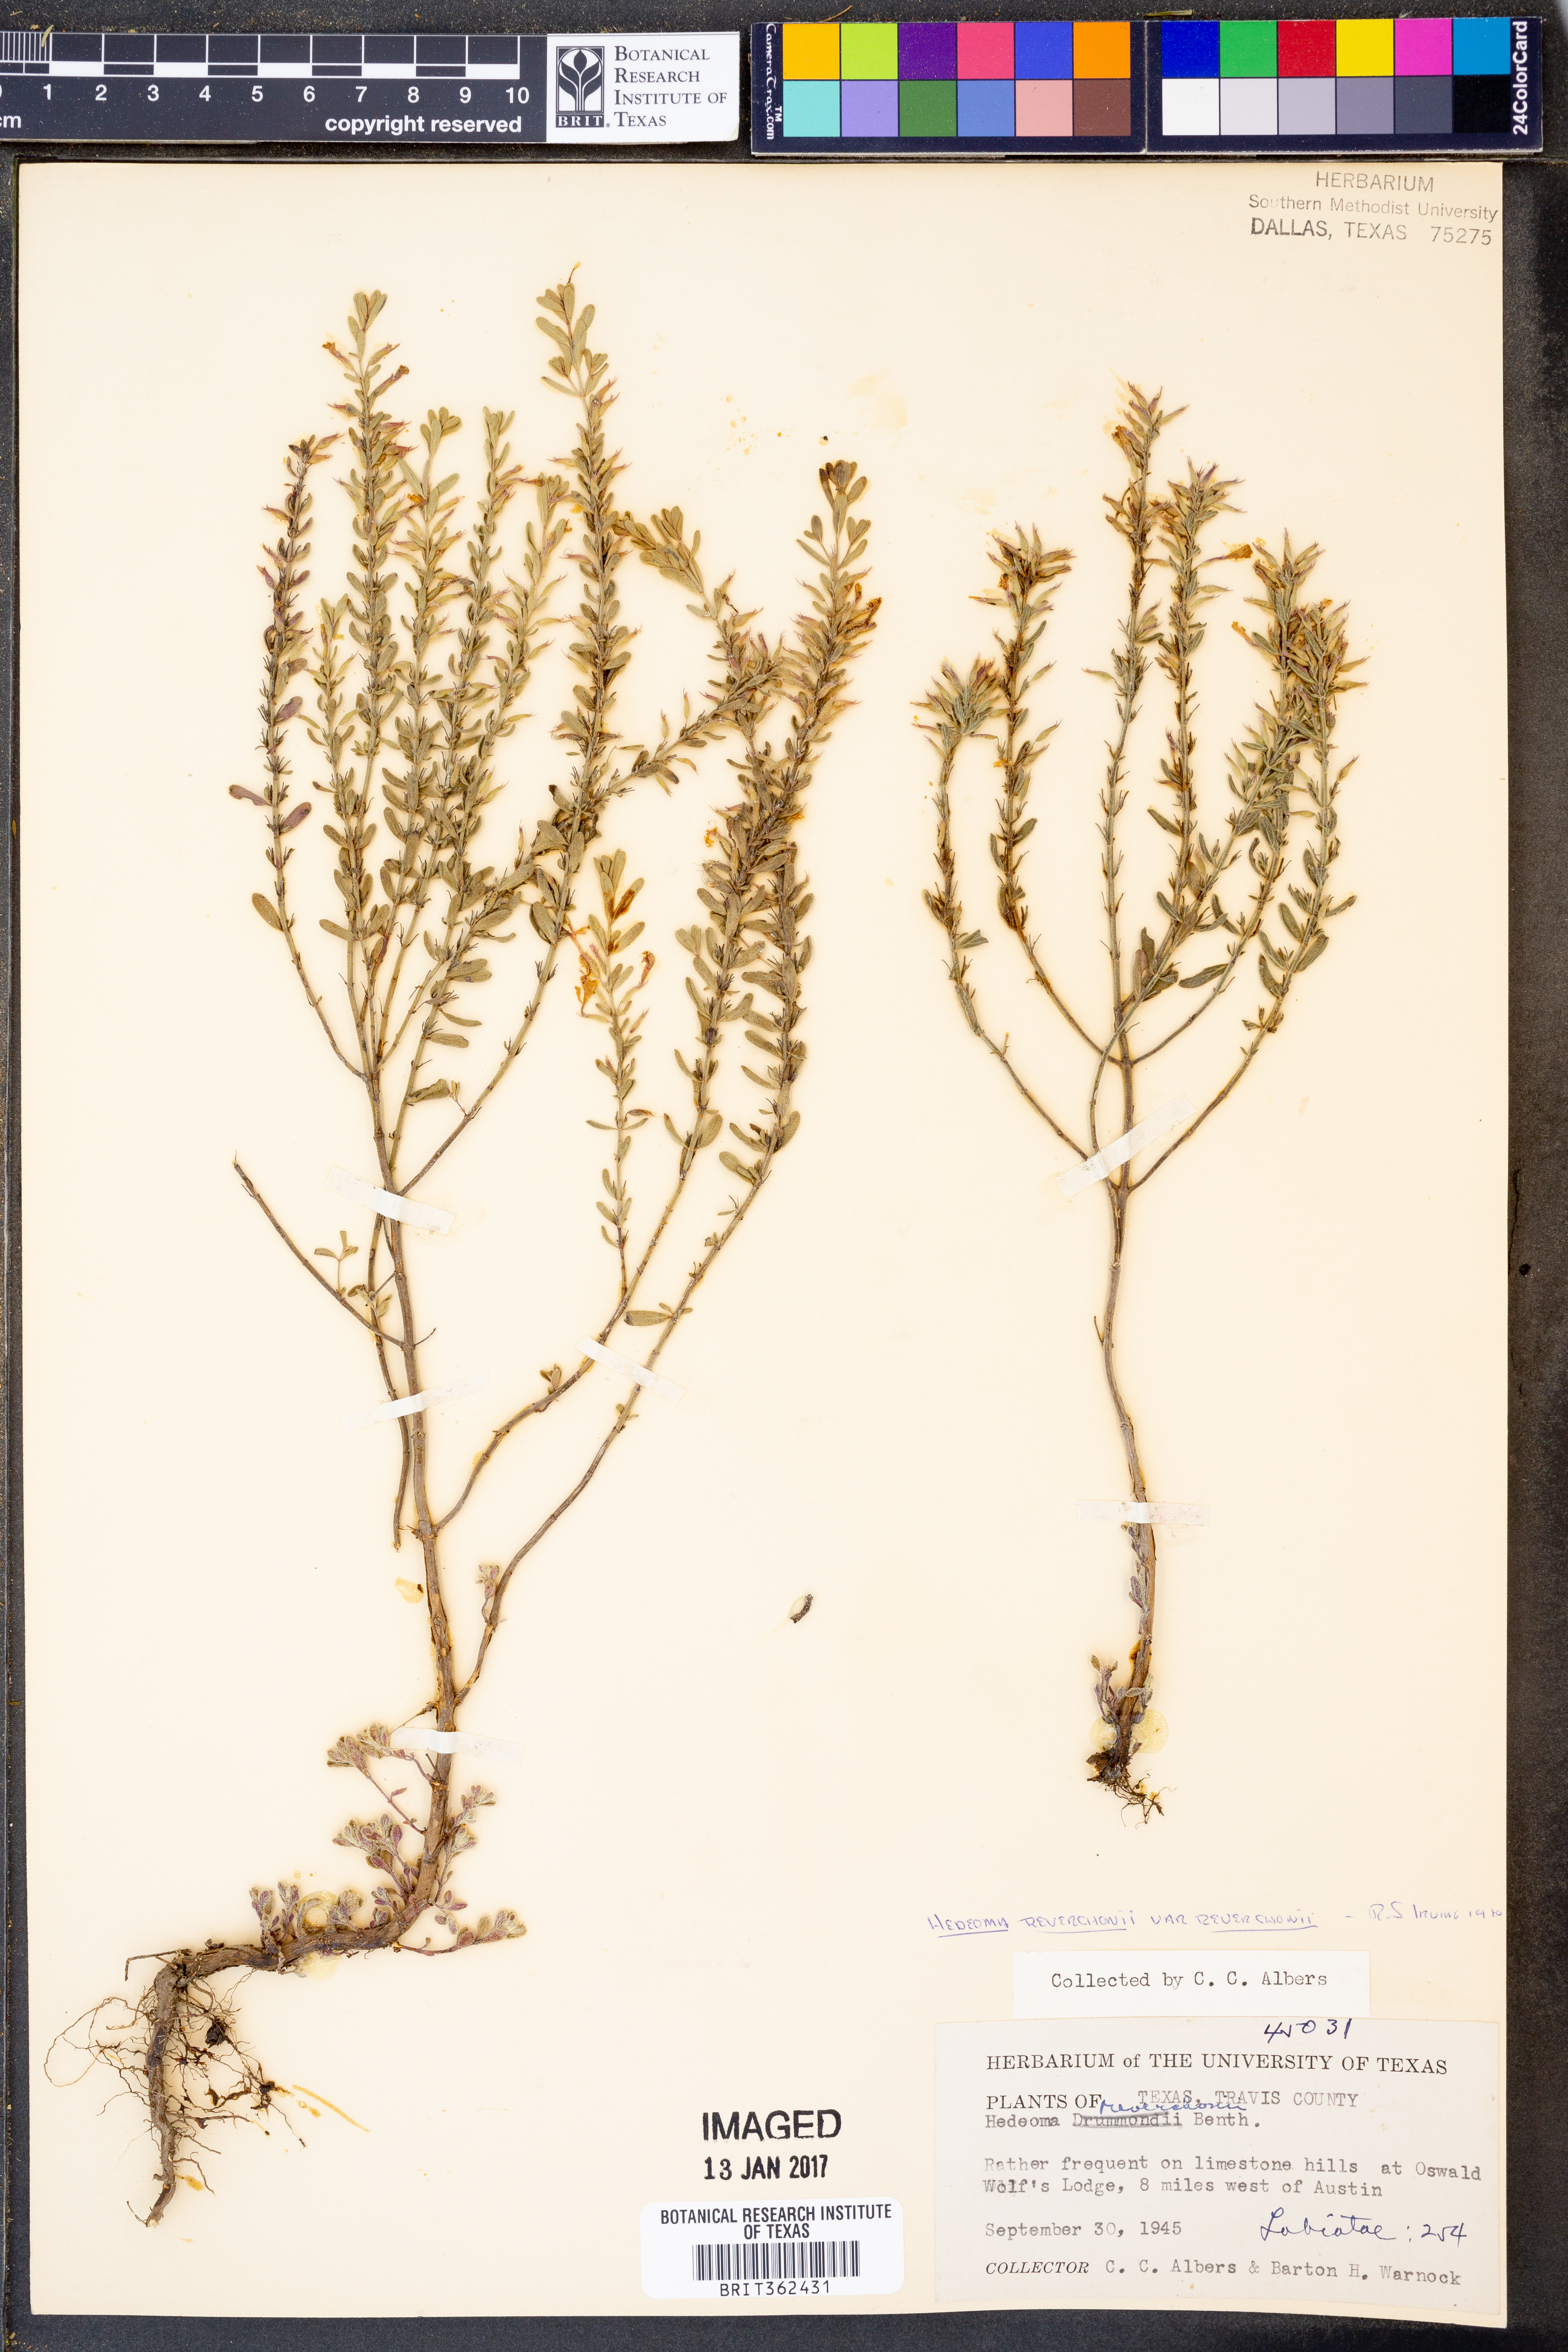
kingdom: Plantae
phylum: Tracheophyta
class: Magnoliopsida
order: Lamiales
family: Lamiaceae
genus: Hedeoma
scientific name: Hedeoma reverchonii
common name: Reverchon's false penny-royal
